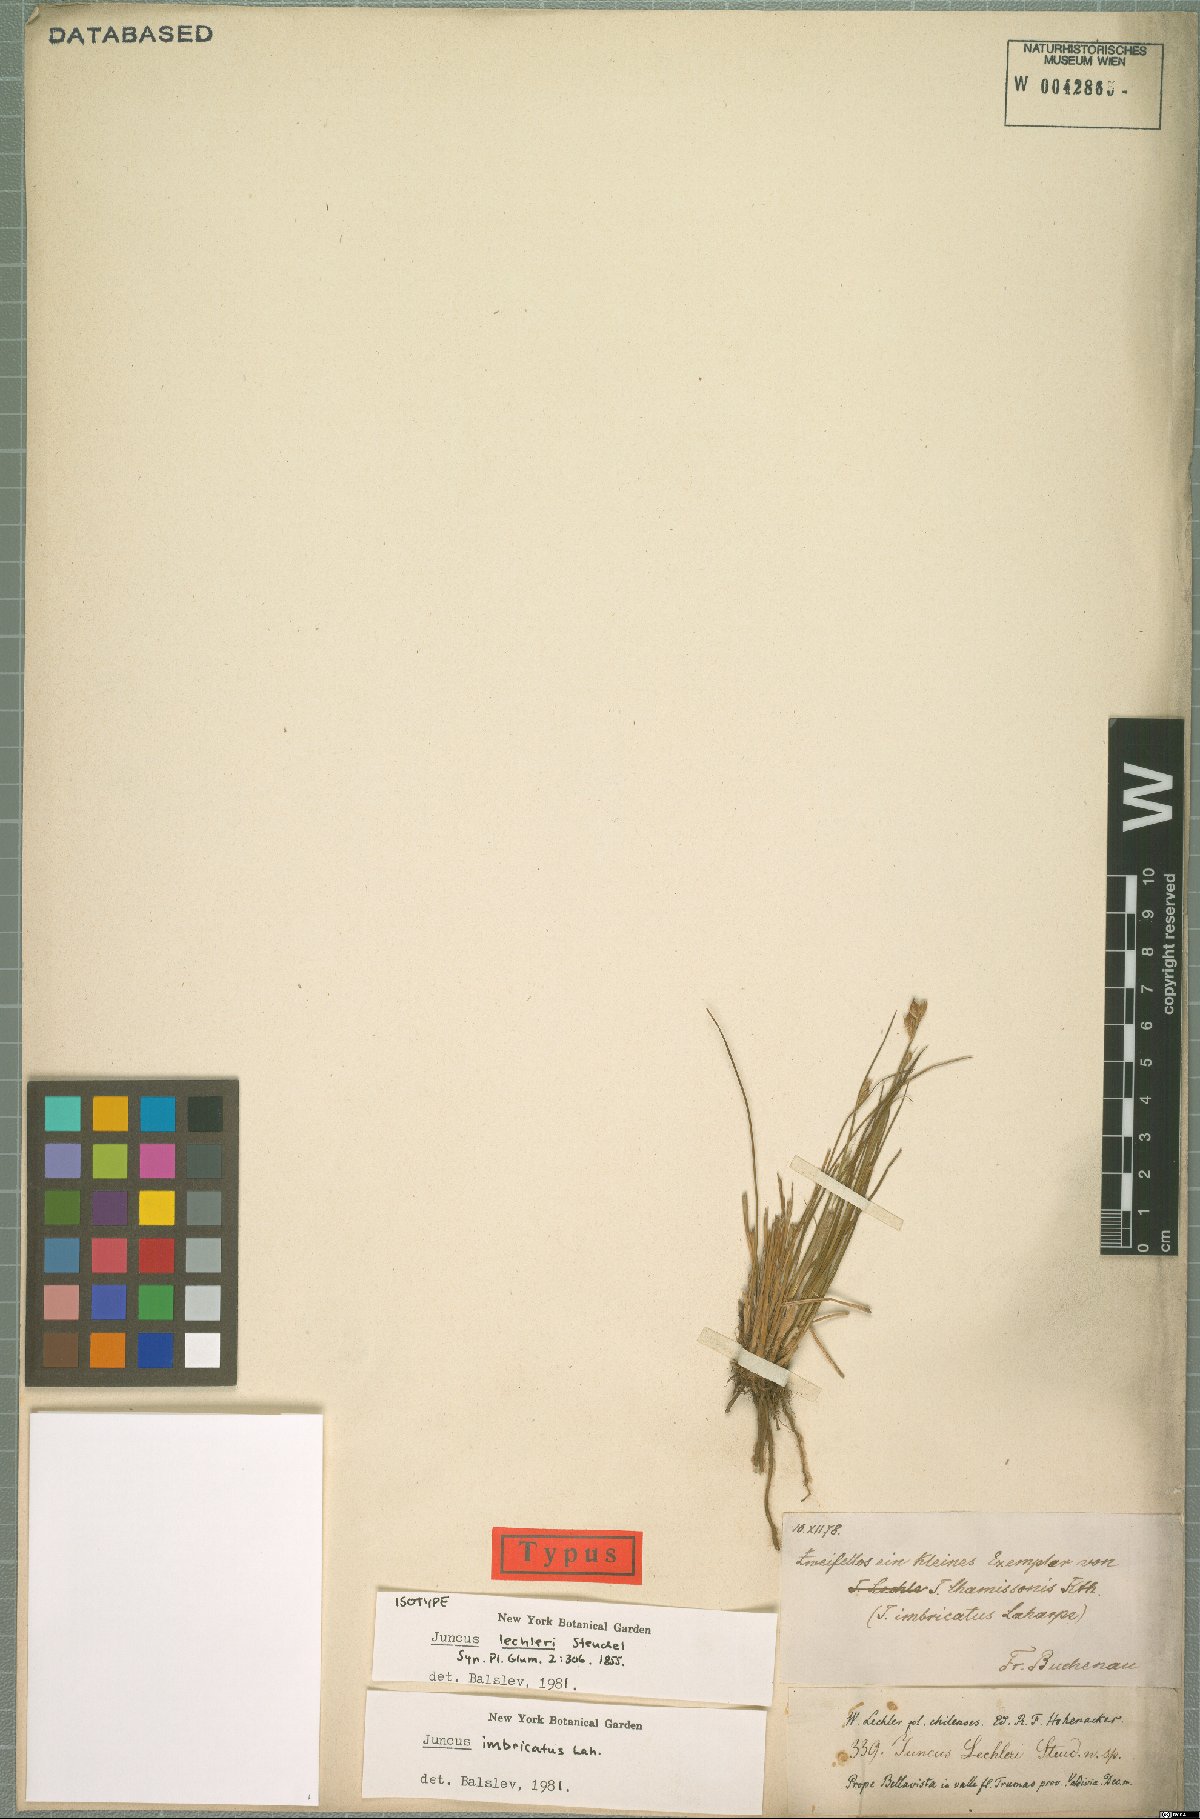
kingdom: Plantae
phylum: Tracheophyta
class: Liliopsida
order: Poales
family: Juncaceae
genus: Juncus
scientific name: Juncus imbricatus
